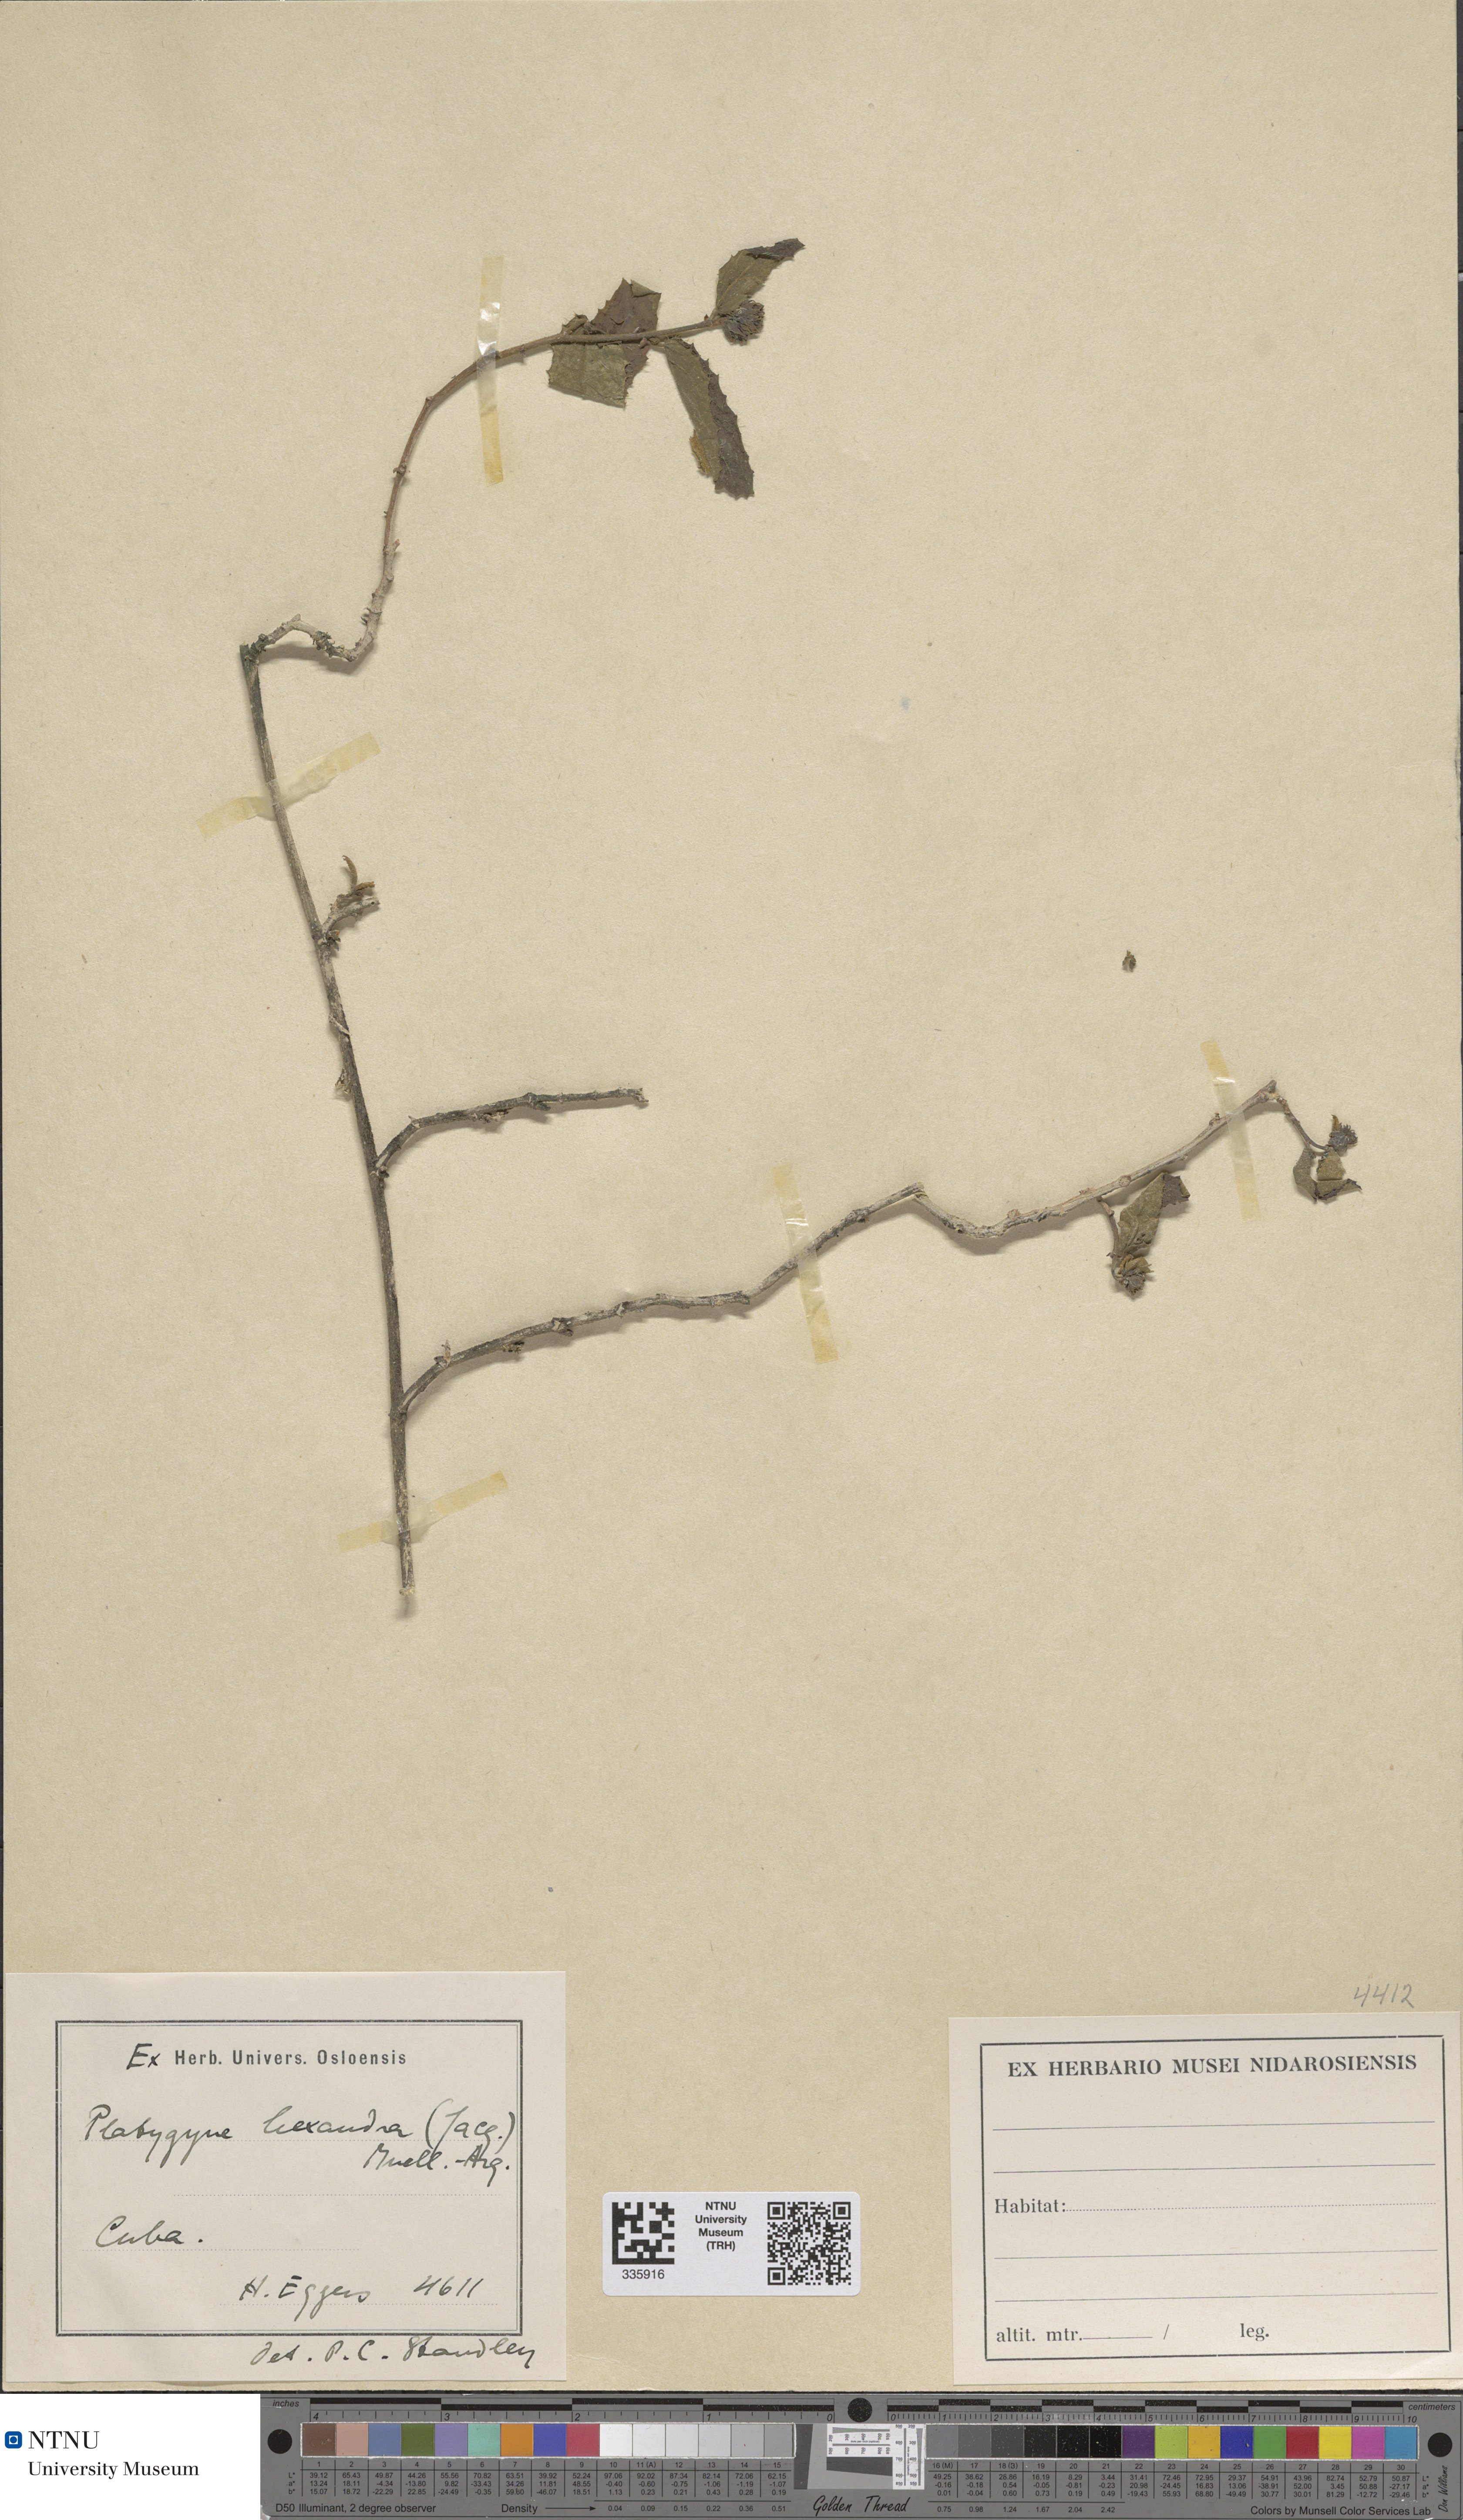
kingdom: Plantae
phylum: Tracheophyta
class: Magnoliopsida
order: Malpighiales
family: Euphorbiaceae
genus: Platygyna
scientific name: Platygyna hexandra
